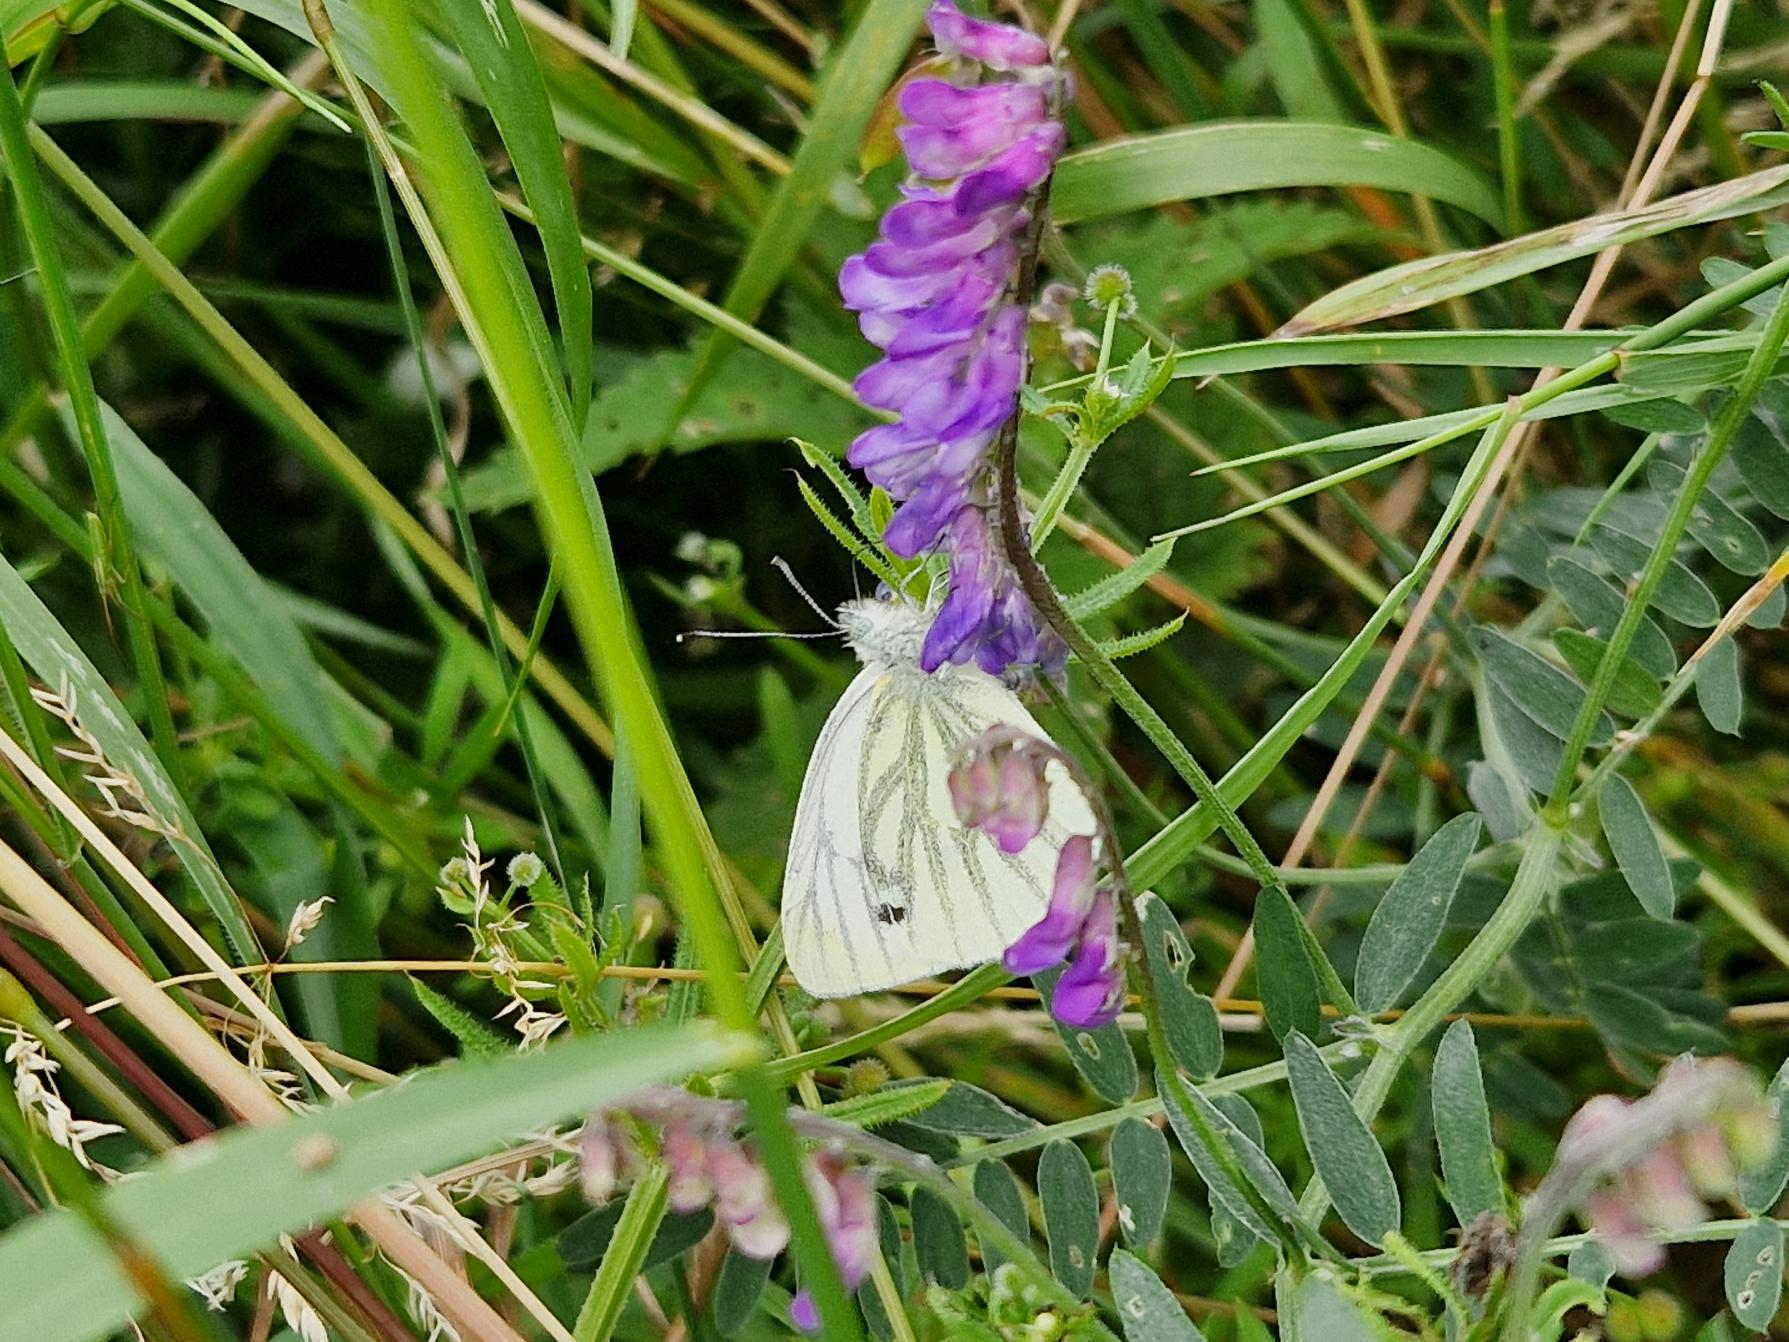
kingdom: Animalia
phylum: Arthropoda
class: Insecta
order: Lepidoptera
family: Pieridae
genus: Pieris
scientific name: Pieris napi
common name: Grønåret kålsommerfugl
